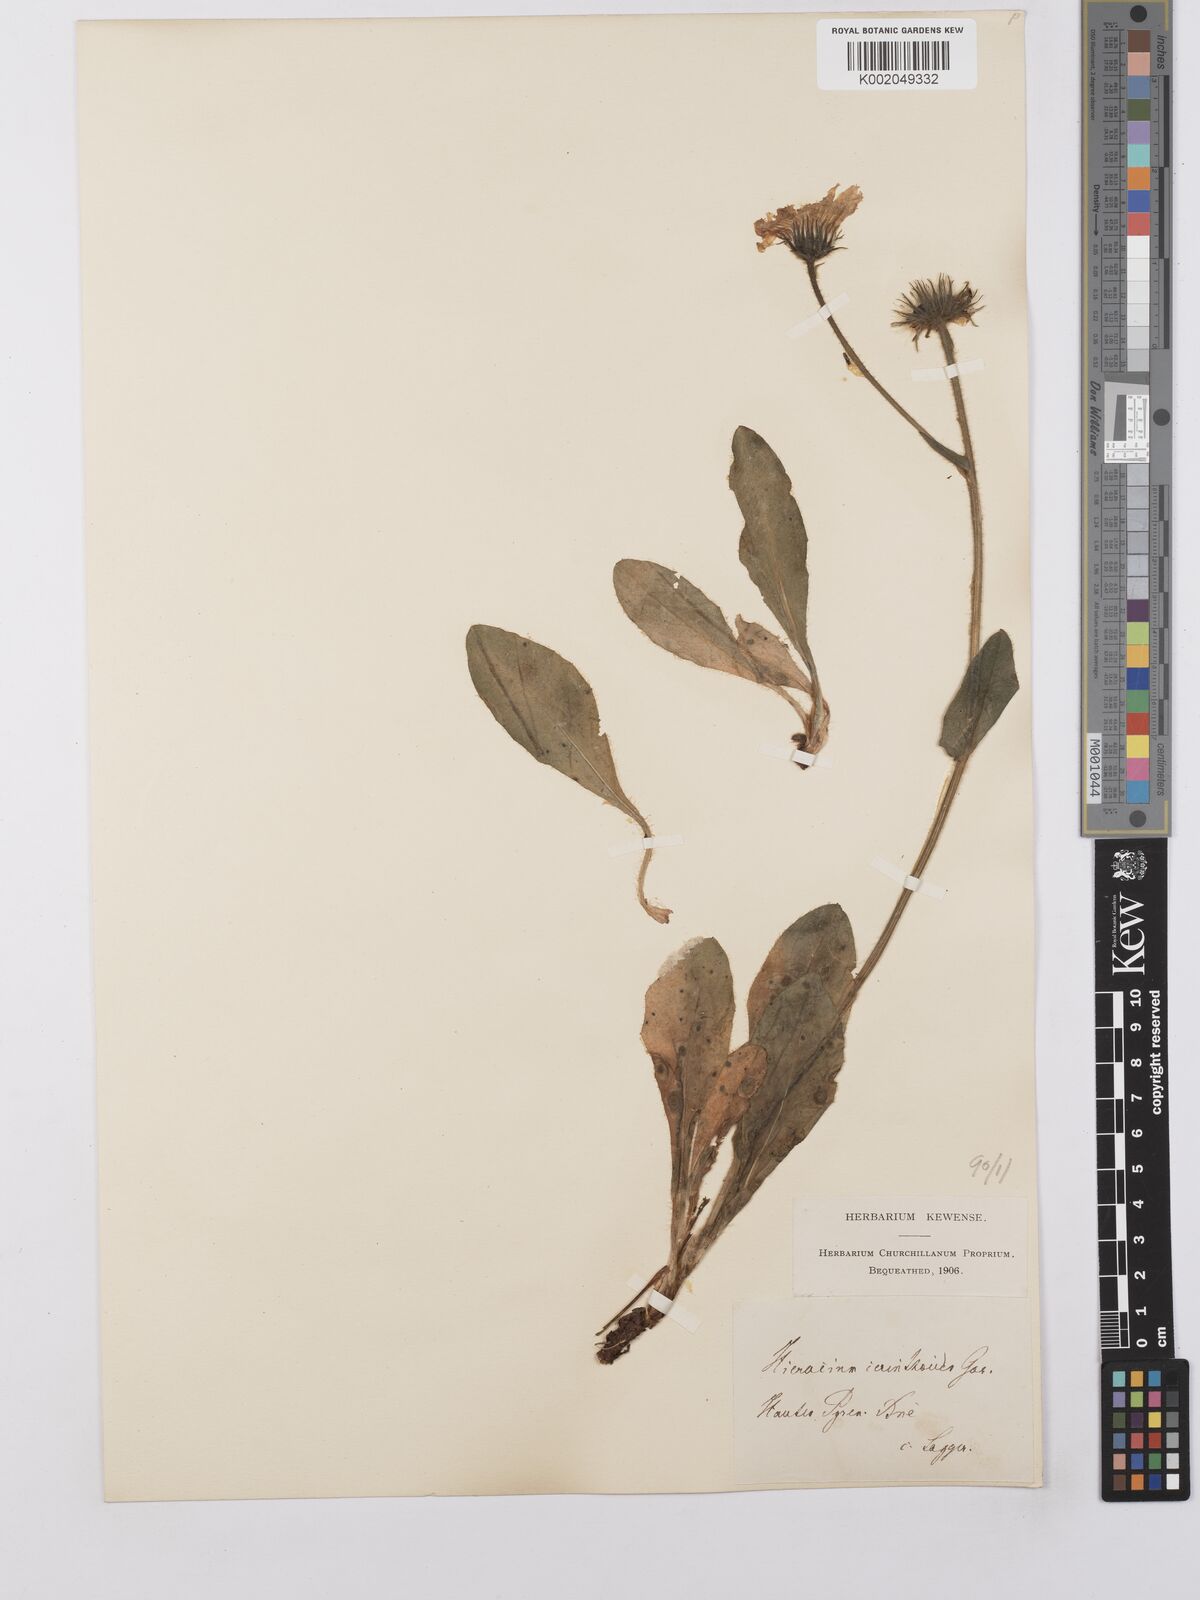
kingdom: Plantae
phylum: Tracheophyta
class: Magnoliopsida
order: Asterales
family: Asteraceae
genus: Hieracium
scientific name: Hieracium cerinthoides
